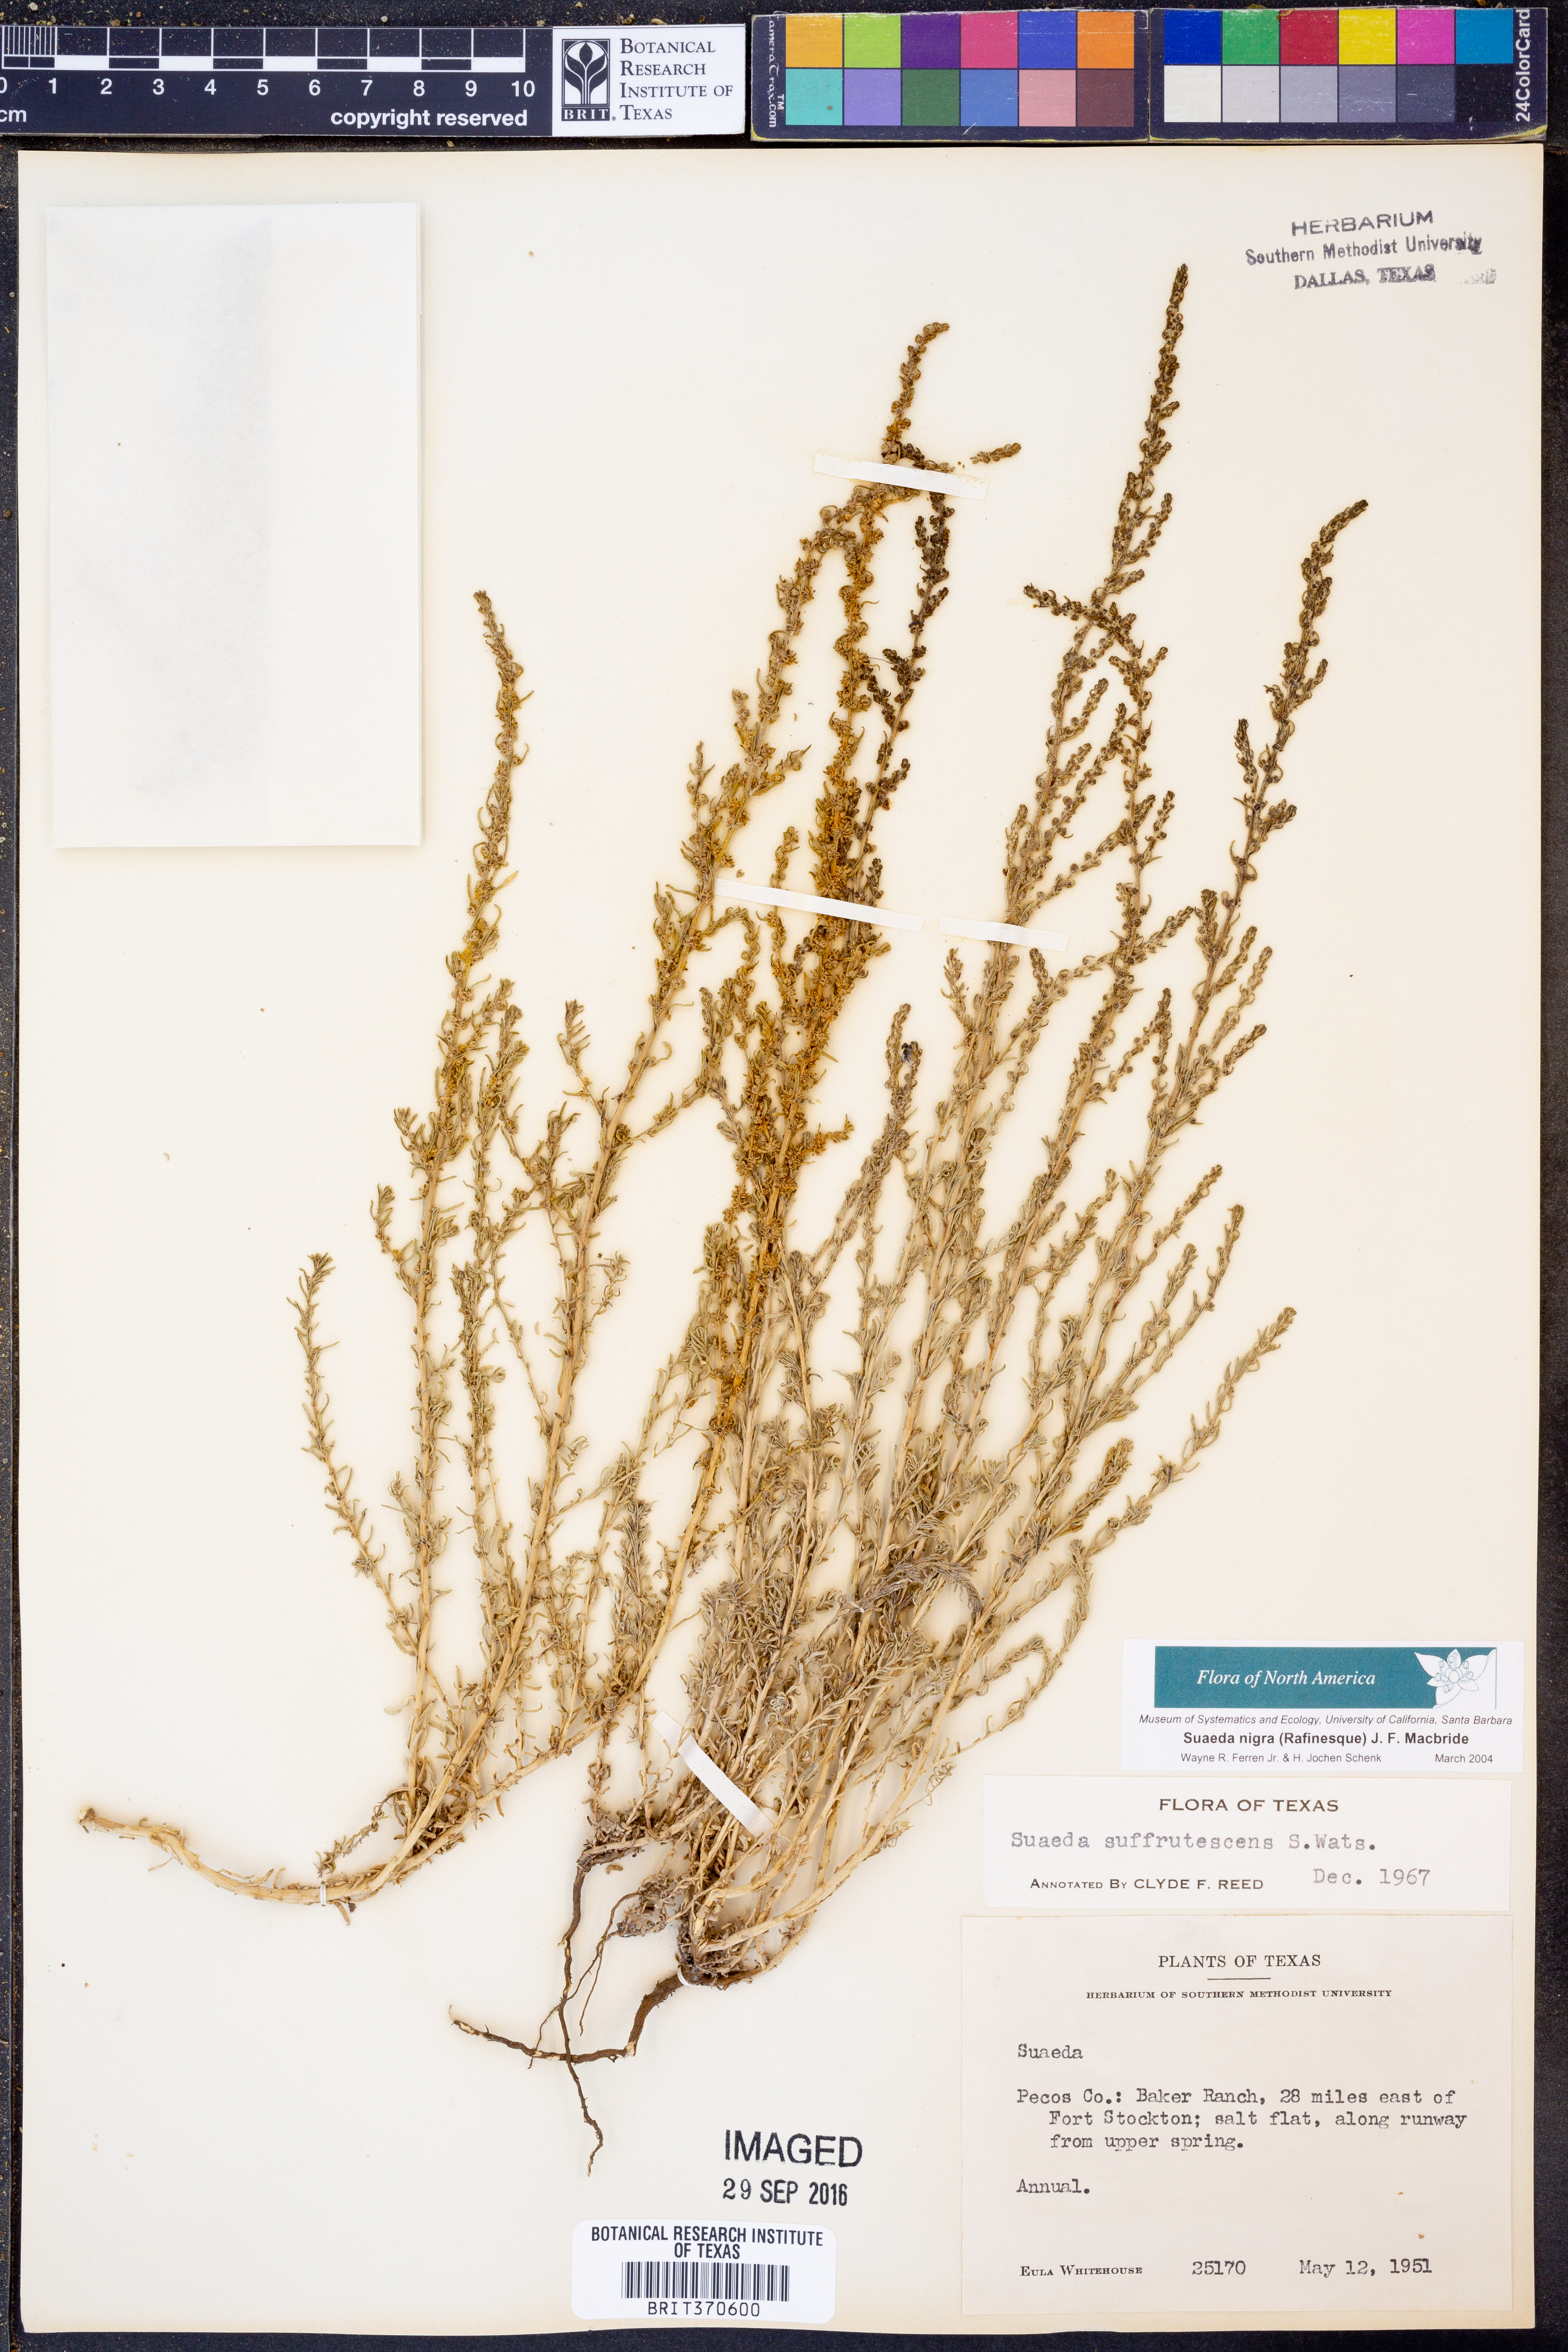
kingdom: Plantae
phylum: Tracheophyta
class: Magnoliopsida
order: Caryophyllales
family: Amaranthaceae
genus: Suaeda
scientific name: Suaeda nigra
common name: Bush seepweed
